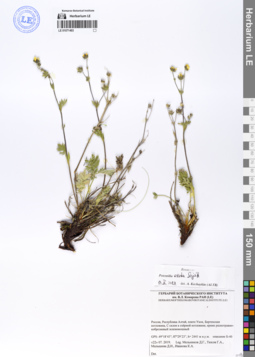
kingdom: Plantae
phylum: Tracheophyta
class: Magnoliopsida
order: Rosales
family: Rosaceae
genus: Potentilla
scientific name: Potentilla exuta
